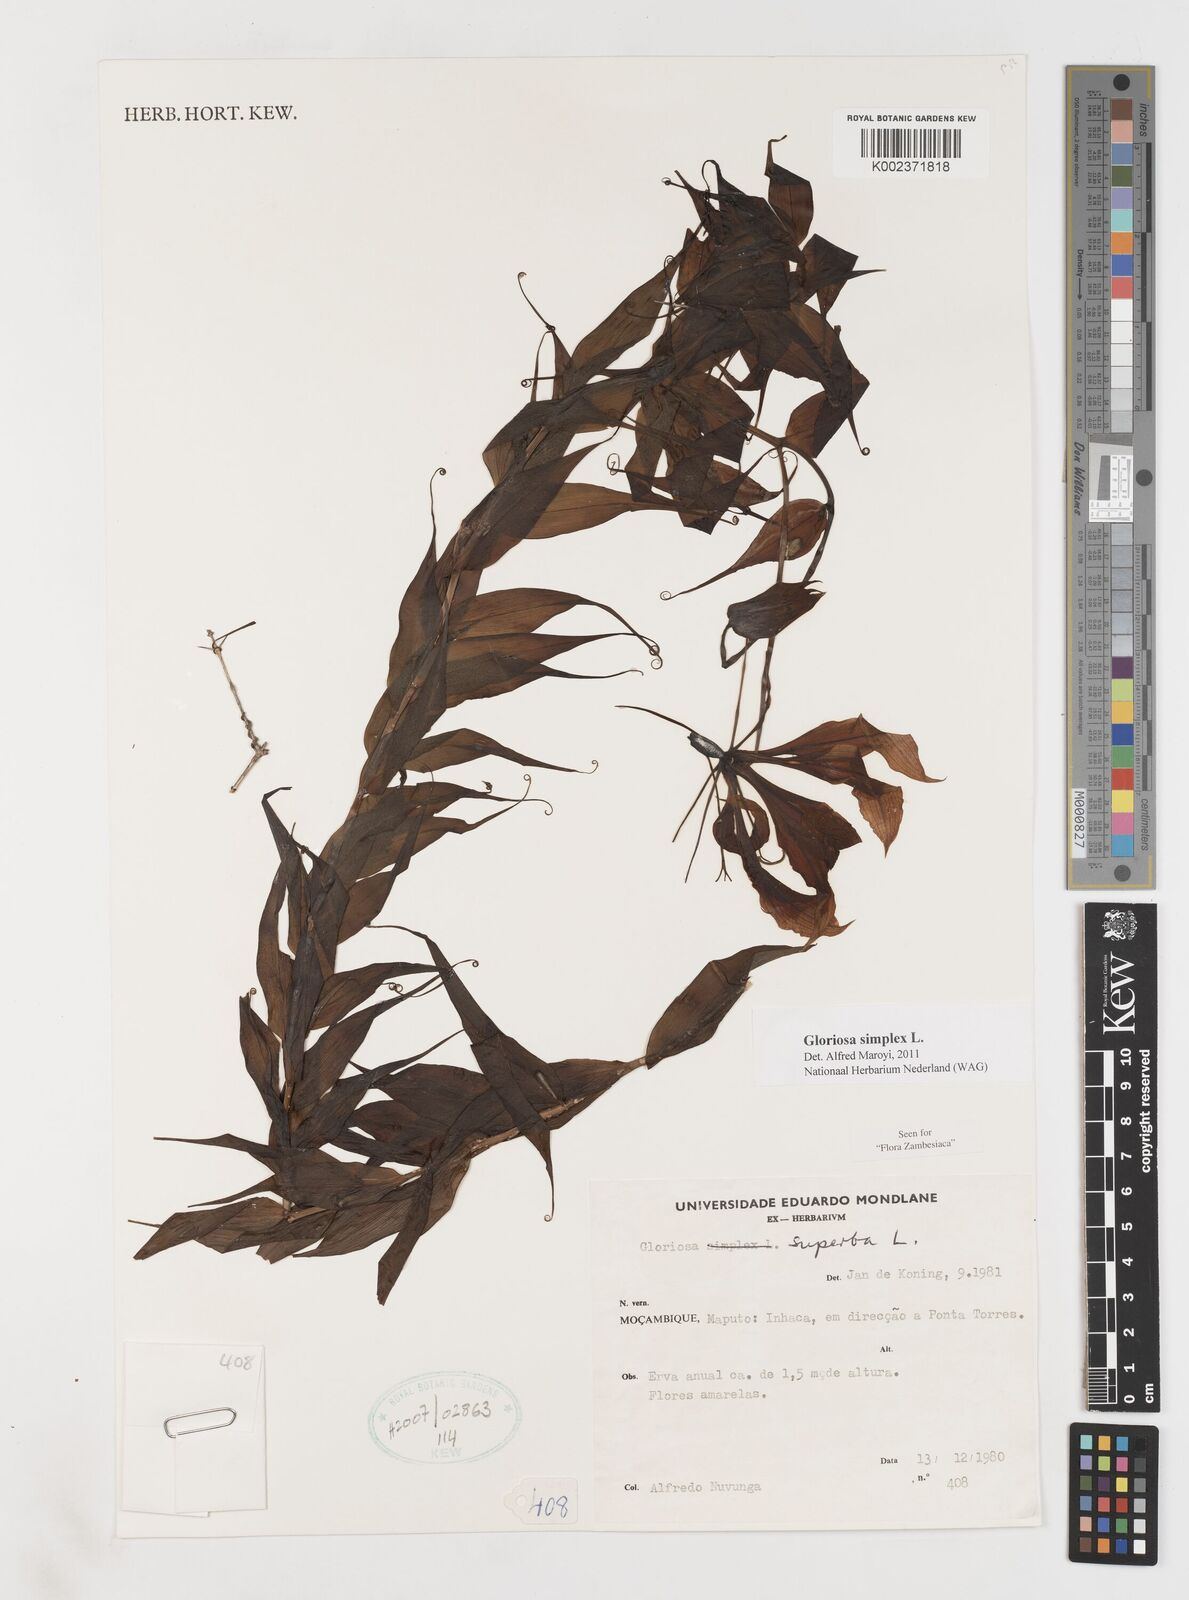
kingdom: Plantae
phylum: Tracheophyta
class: Liliopsida
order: Liliales
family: Colchicaceae
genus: Gloriosa
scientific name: Gloriosa simplex
